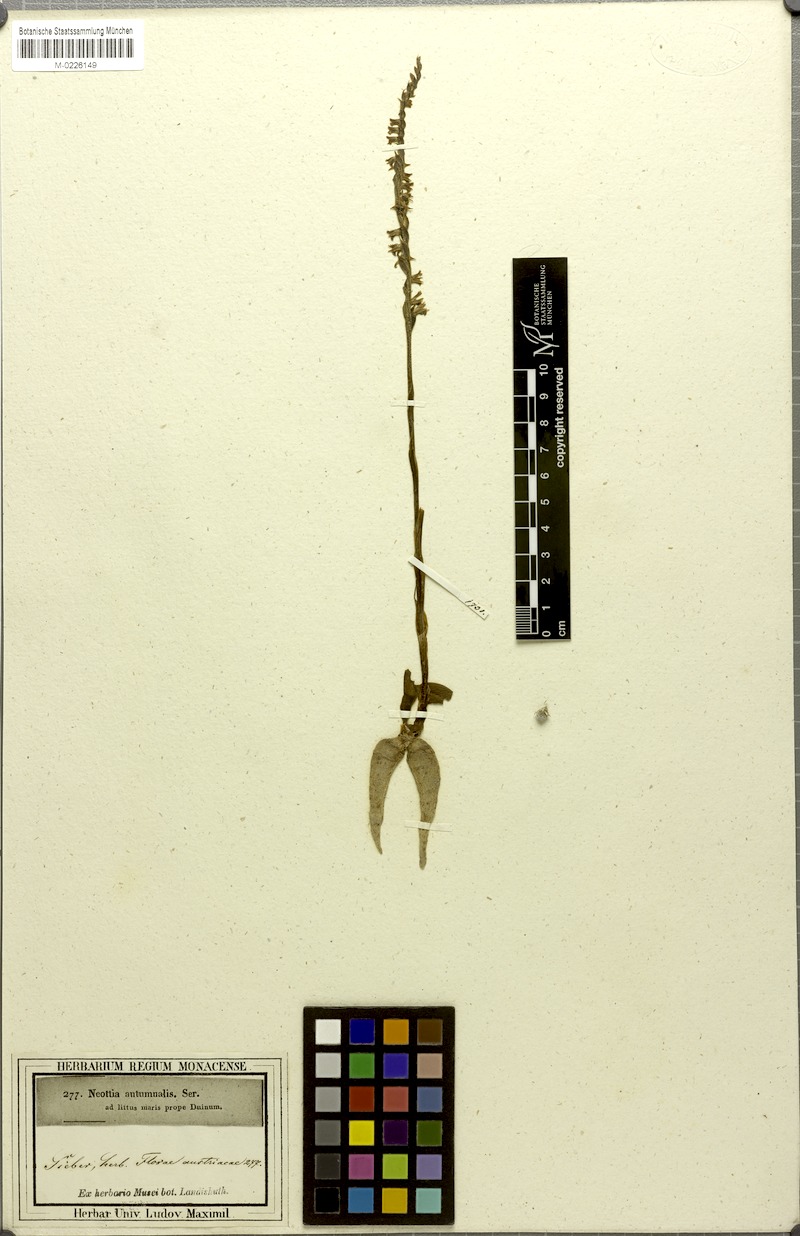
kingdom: Plantae
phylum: Tracheophyta
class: Liliopsida
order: Asparagales
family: Orchidaceae
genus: Spiranthes
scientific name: Spiranthes spiralis
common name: Autumn lady's-tresses
